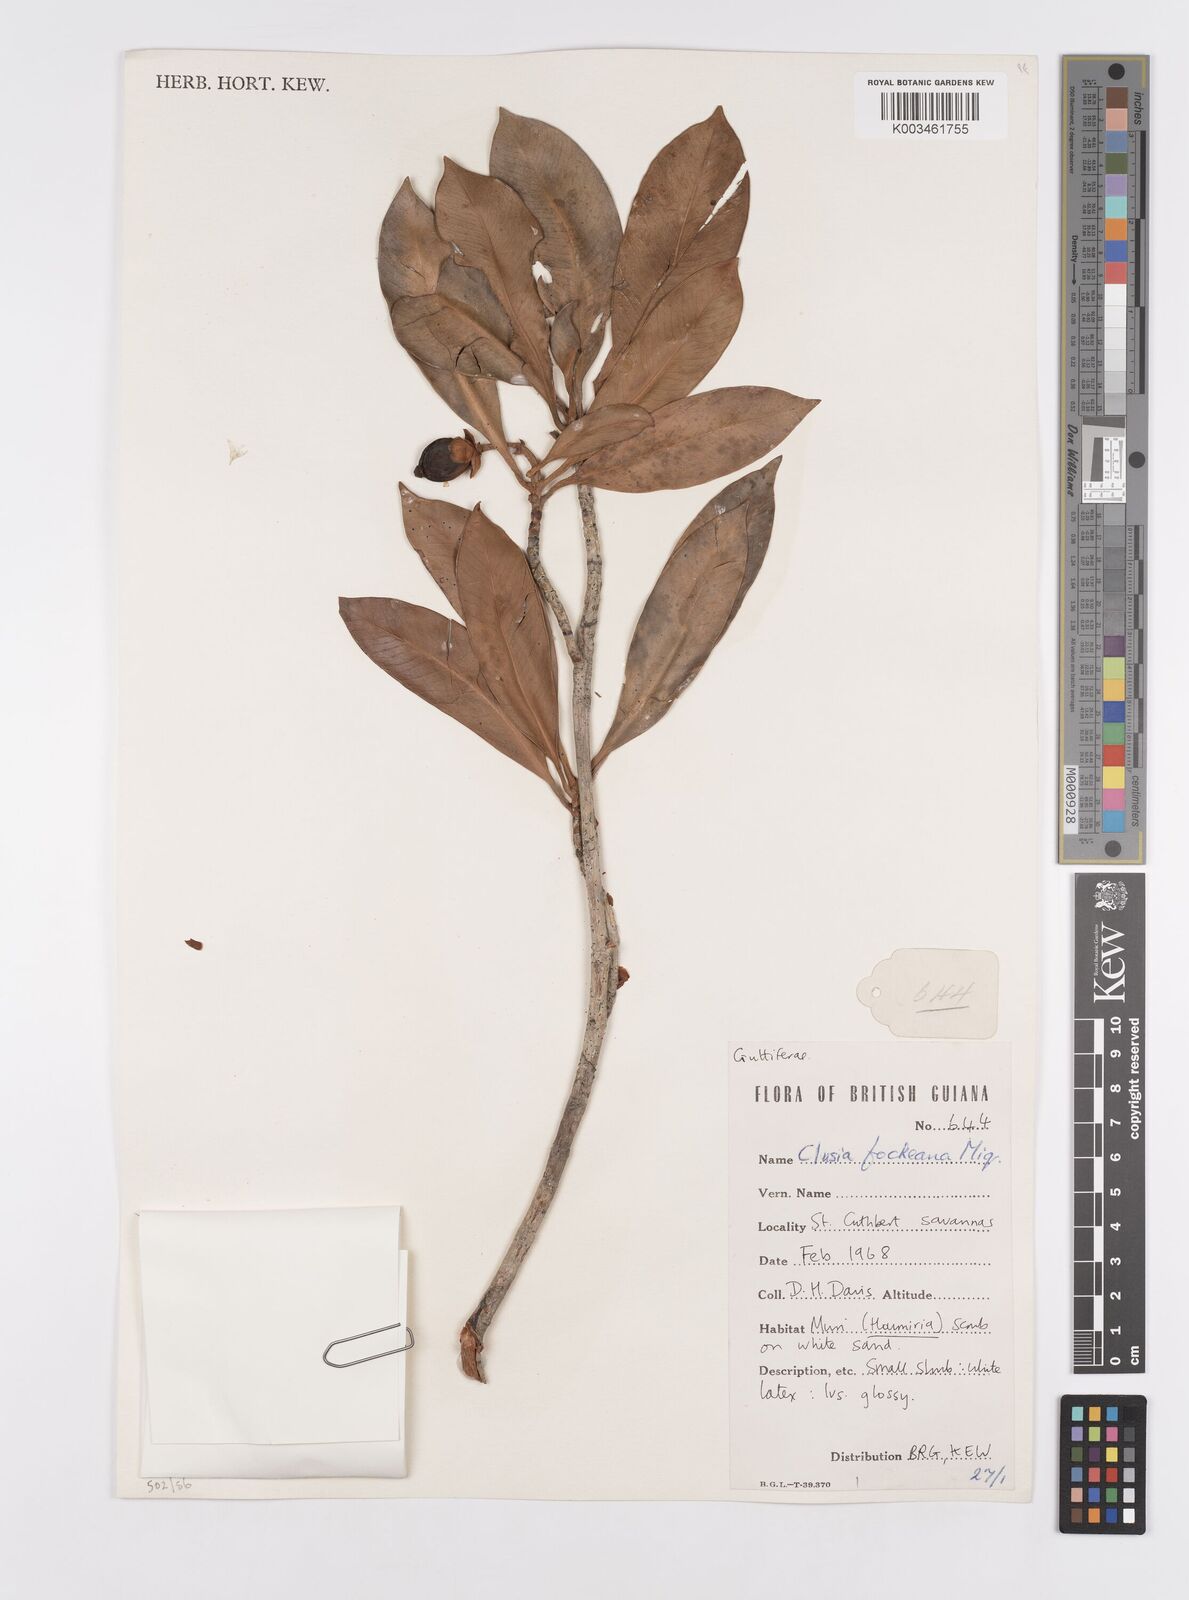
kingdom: Plantae
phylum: Tracheophyta
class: Magnoliopsida
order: Malpighiales
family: Clusiaceae
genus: Clusia
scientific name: Clusia fockeana
